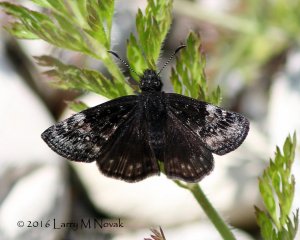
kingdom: Animalia
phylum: Arthropoda
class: Insecta
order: Lepidoptera
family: Hesperiidae
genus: Gesta
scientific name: Gesta
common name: Columbine Duskywing
